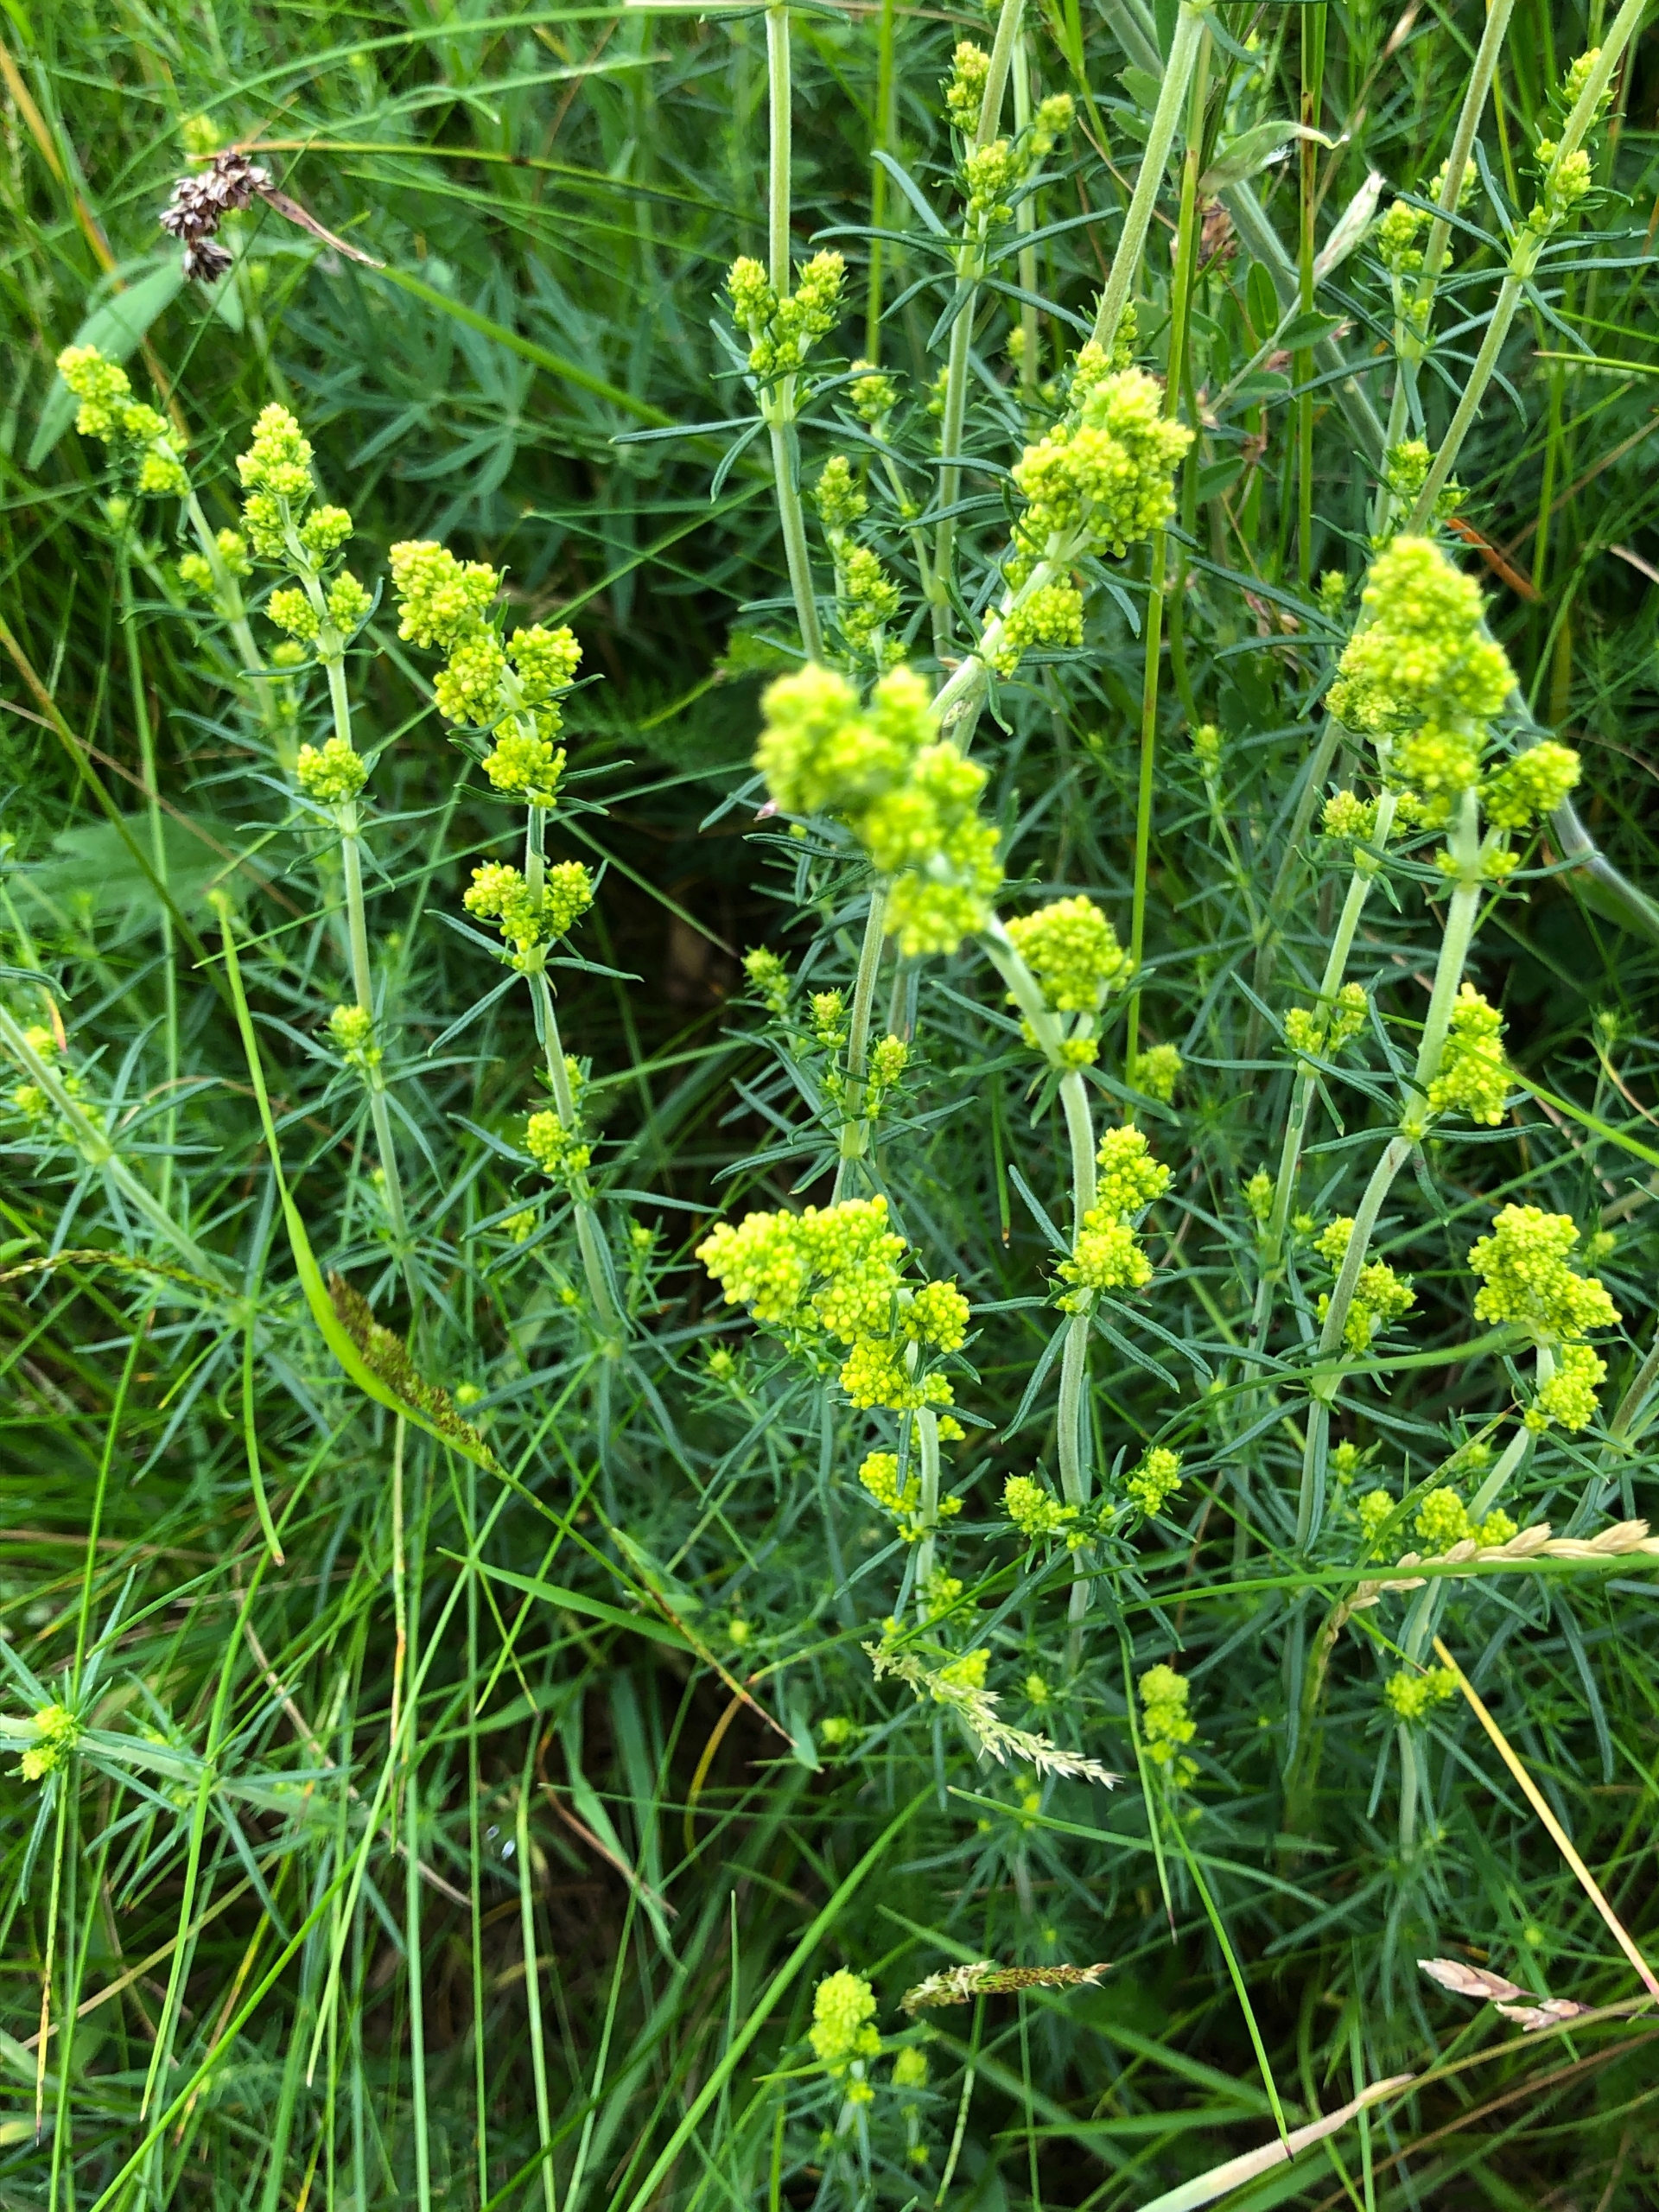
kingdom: Plantae
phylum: Tracheophyta
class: Magnoliopsida
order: Gentianales
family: Rubiaceae
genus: Galium
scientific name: Galium verum
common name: Gul snerre
